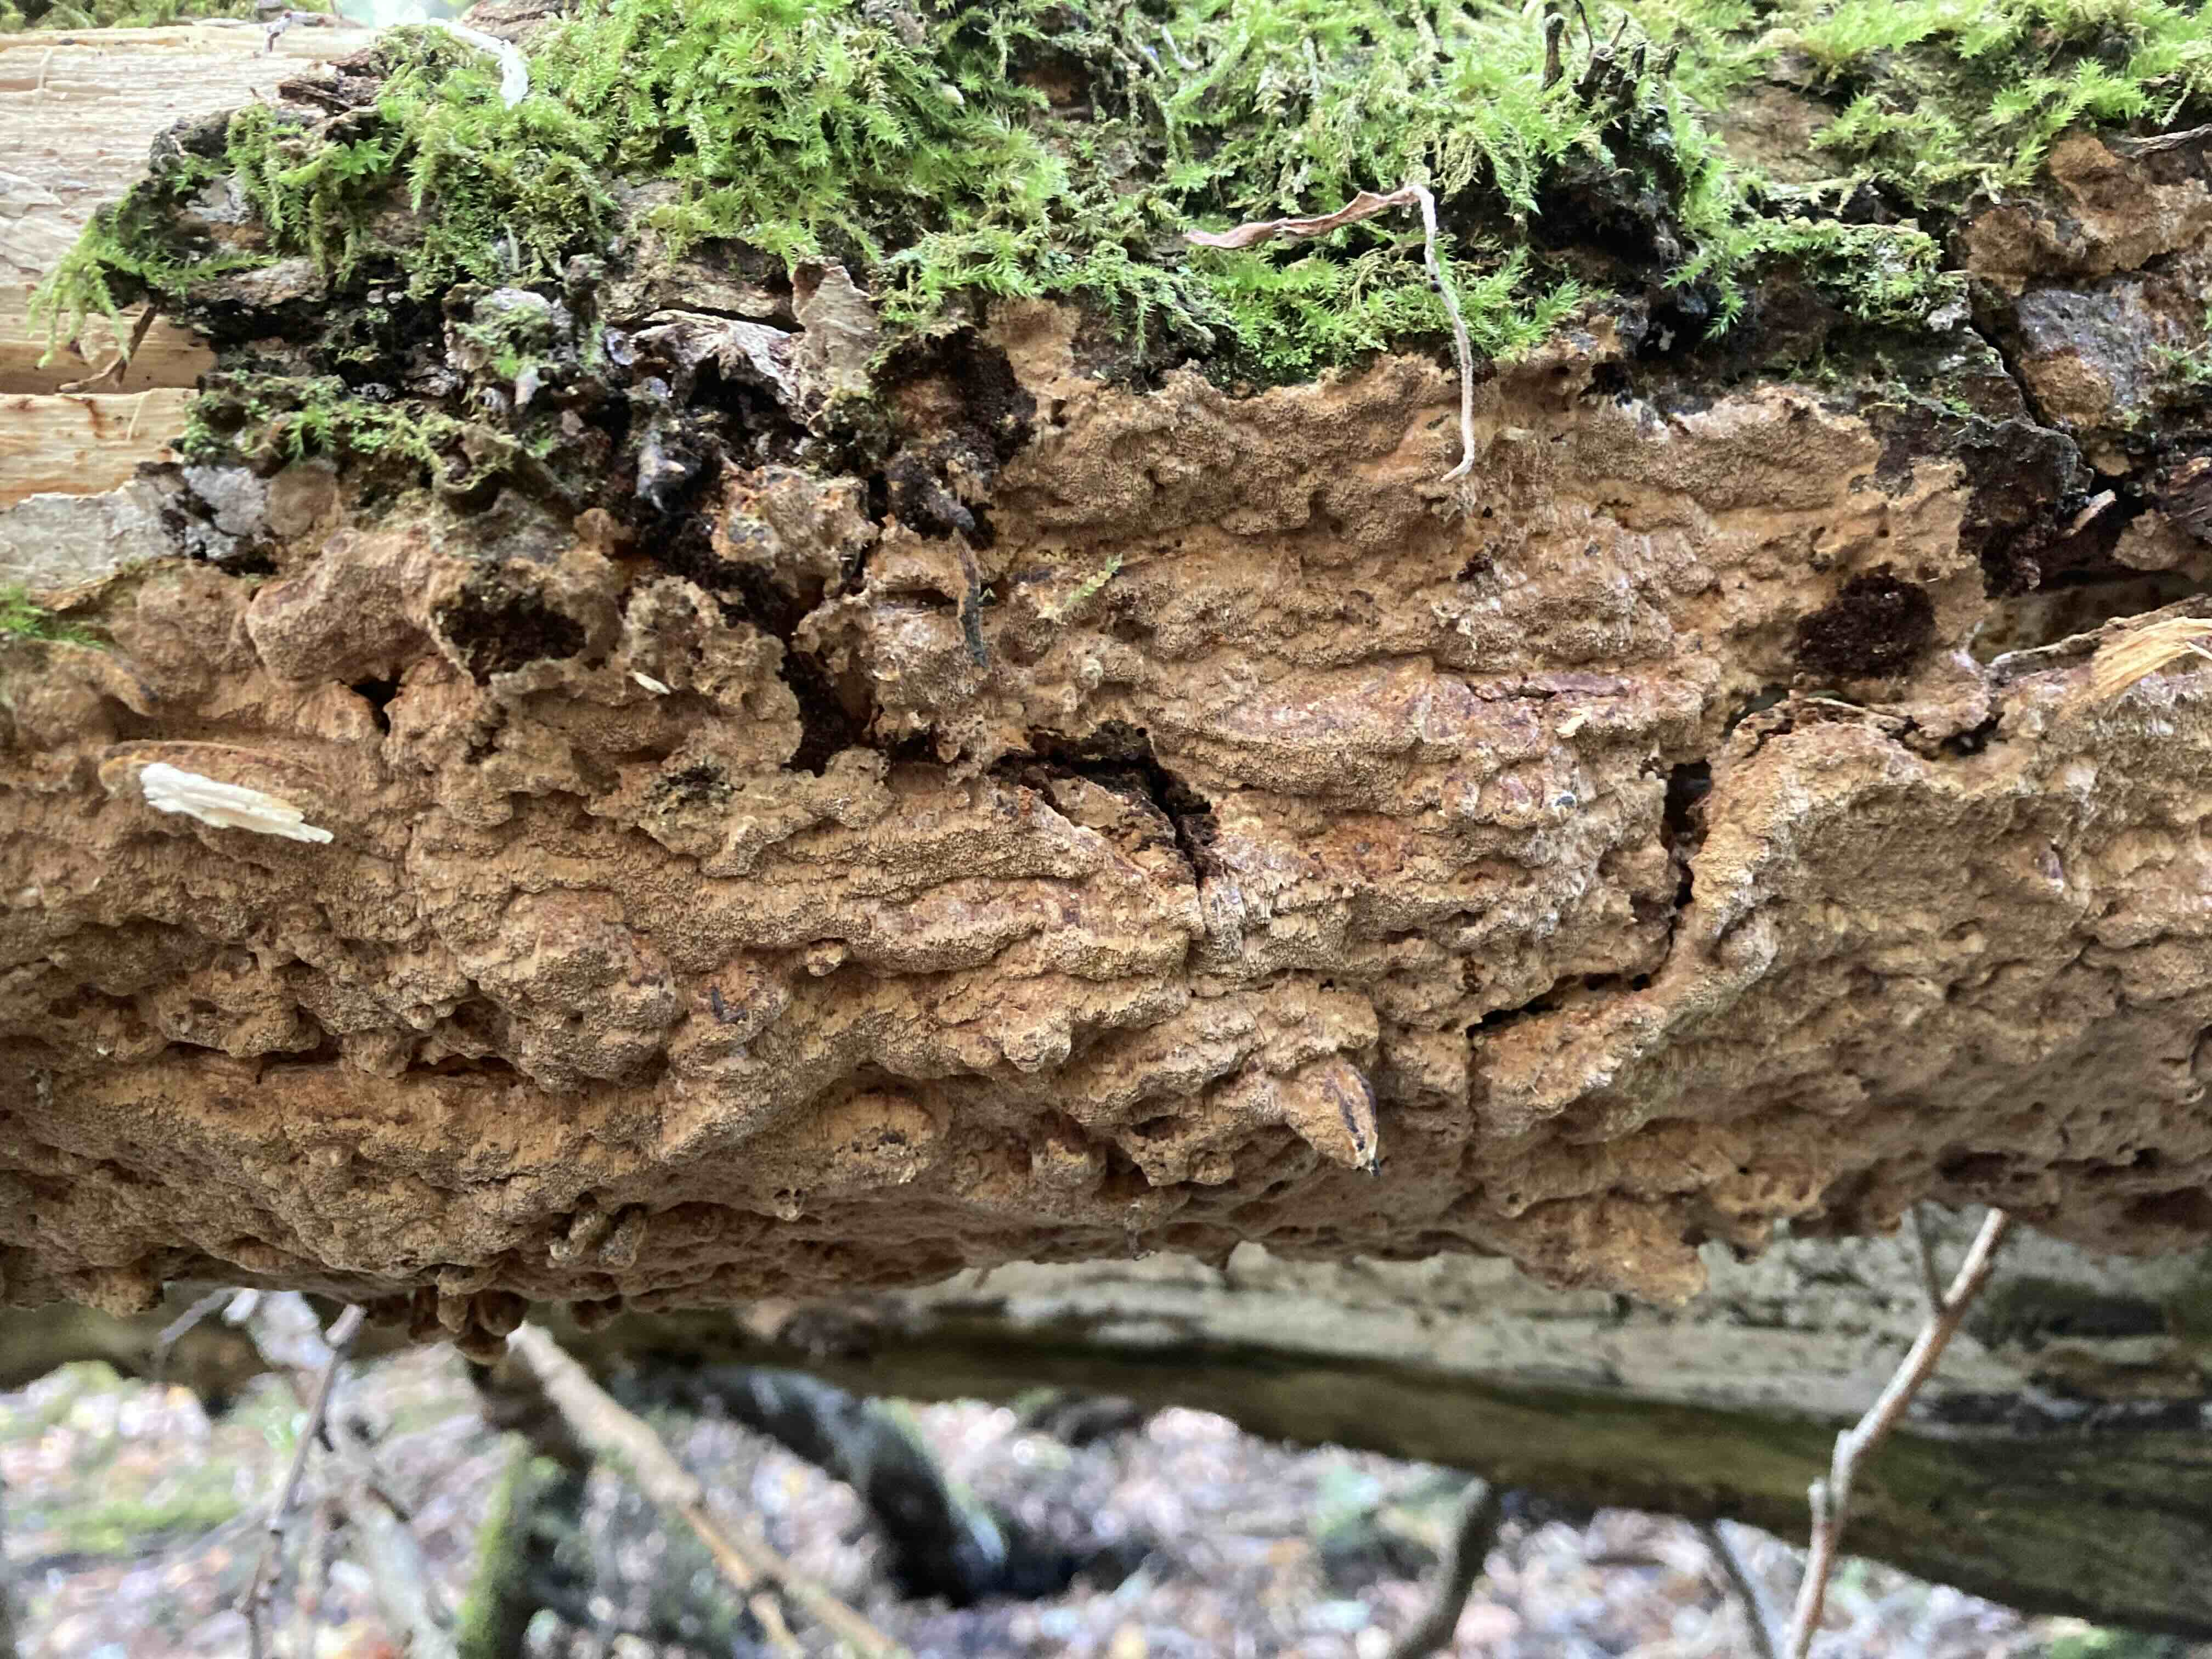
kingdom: Fungi
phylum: Basidiomycota
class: Agaricomycetes
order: Hymenochaetales
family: Hymenochaetaceae
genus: Fuscoporia
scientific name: Fuscoporia ferruginosa
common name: rustbrun ildporesvamp
